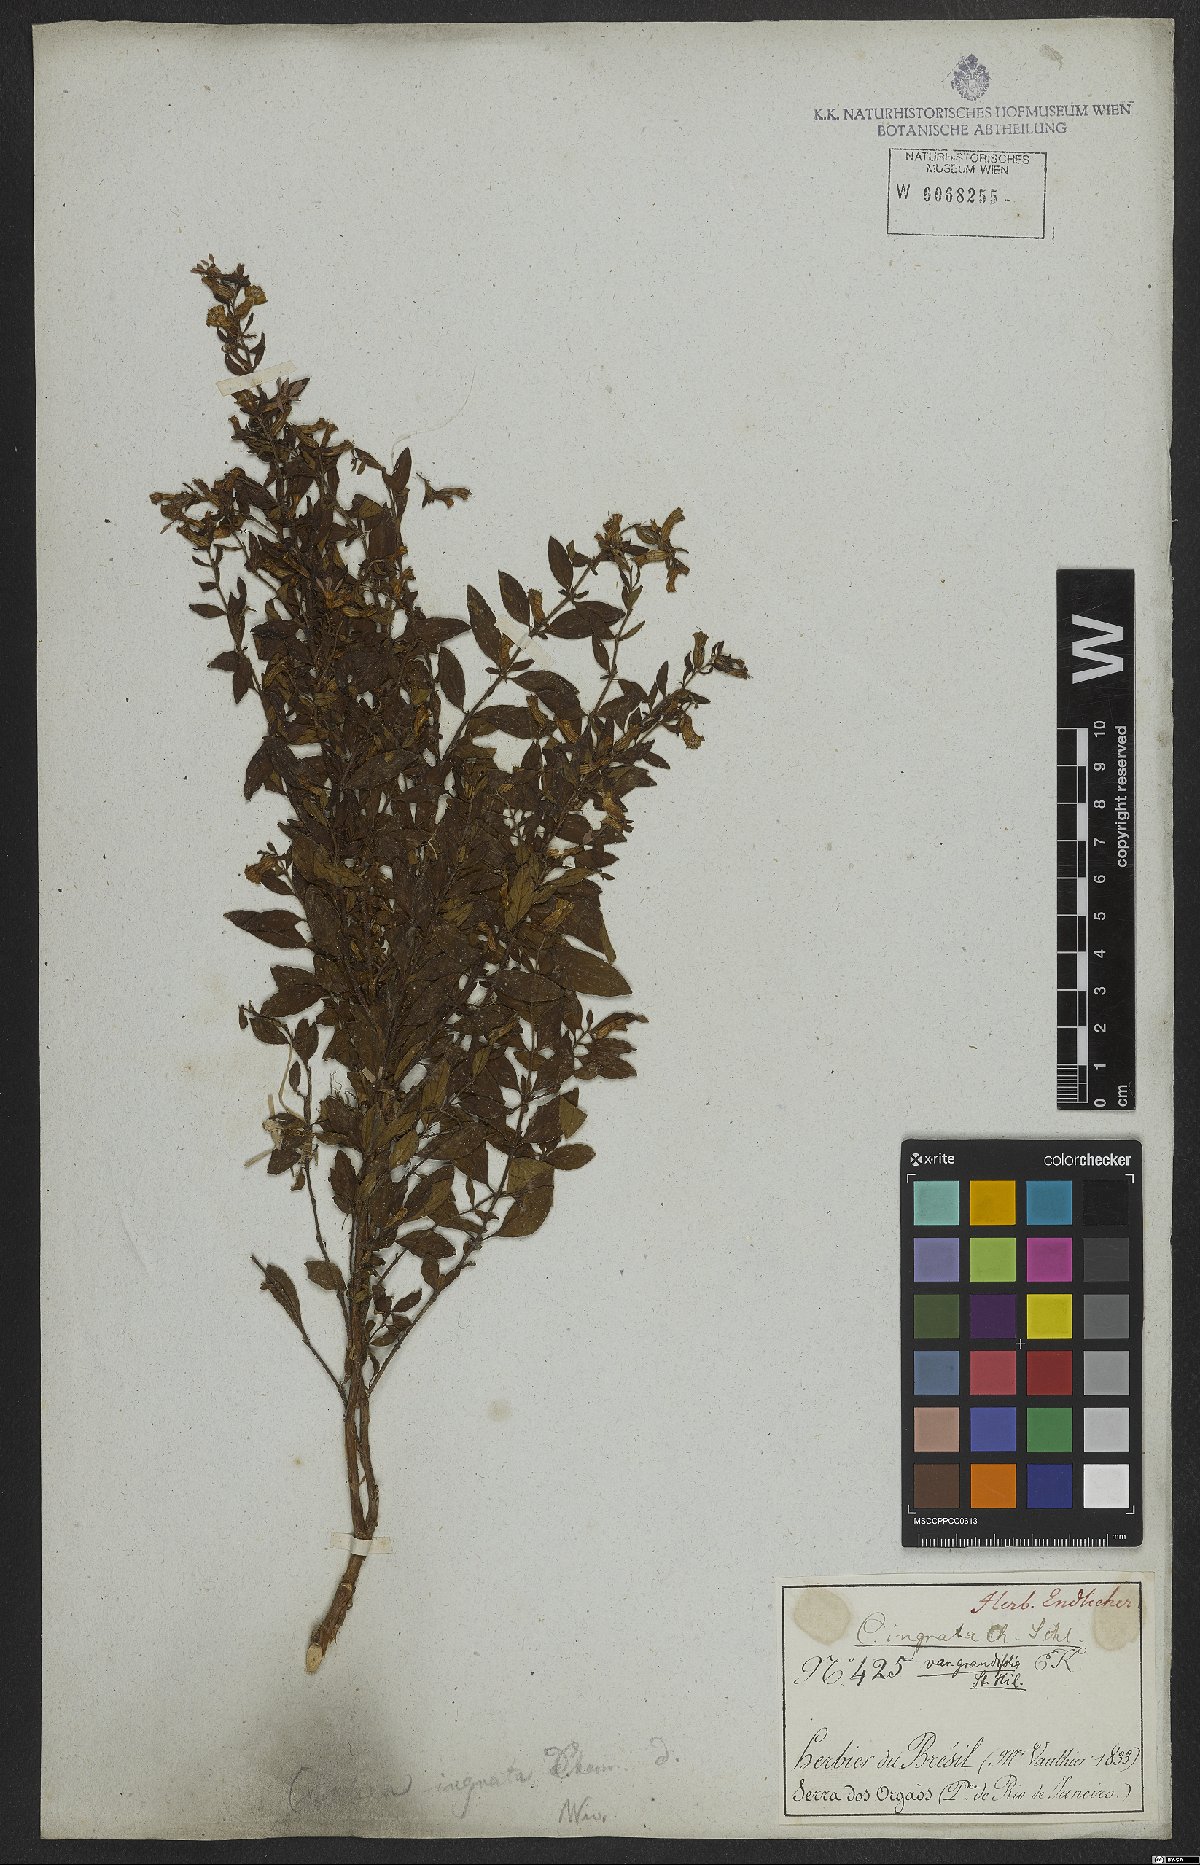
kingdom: Plantae
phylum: Tracheophyta
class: Magnoliopsida
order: Myrtales
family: Lythraceae
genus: Cuphea
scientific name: Cuphea ingrata
